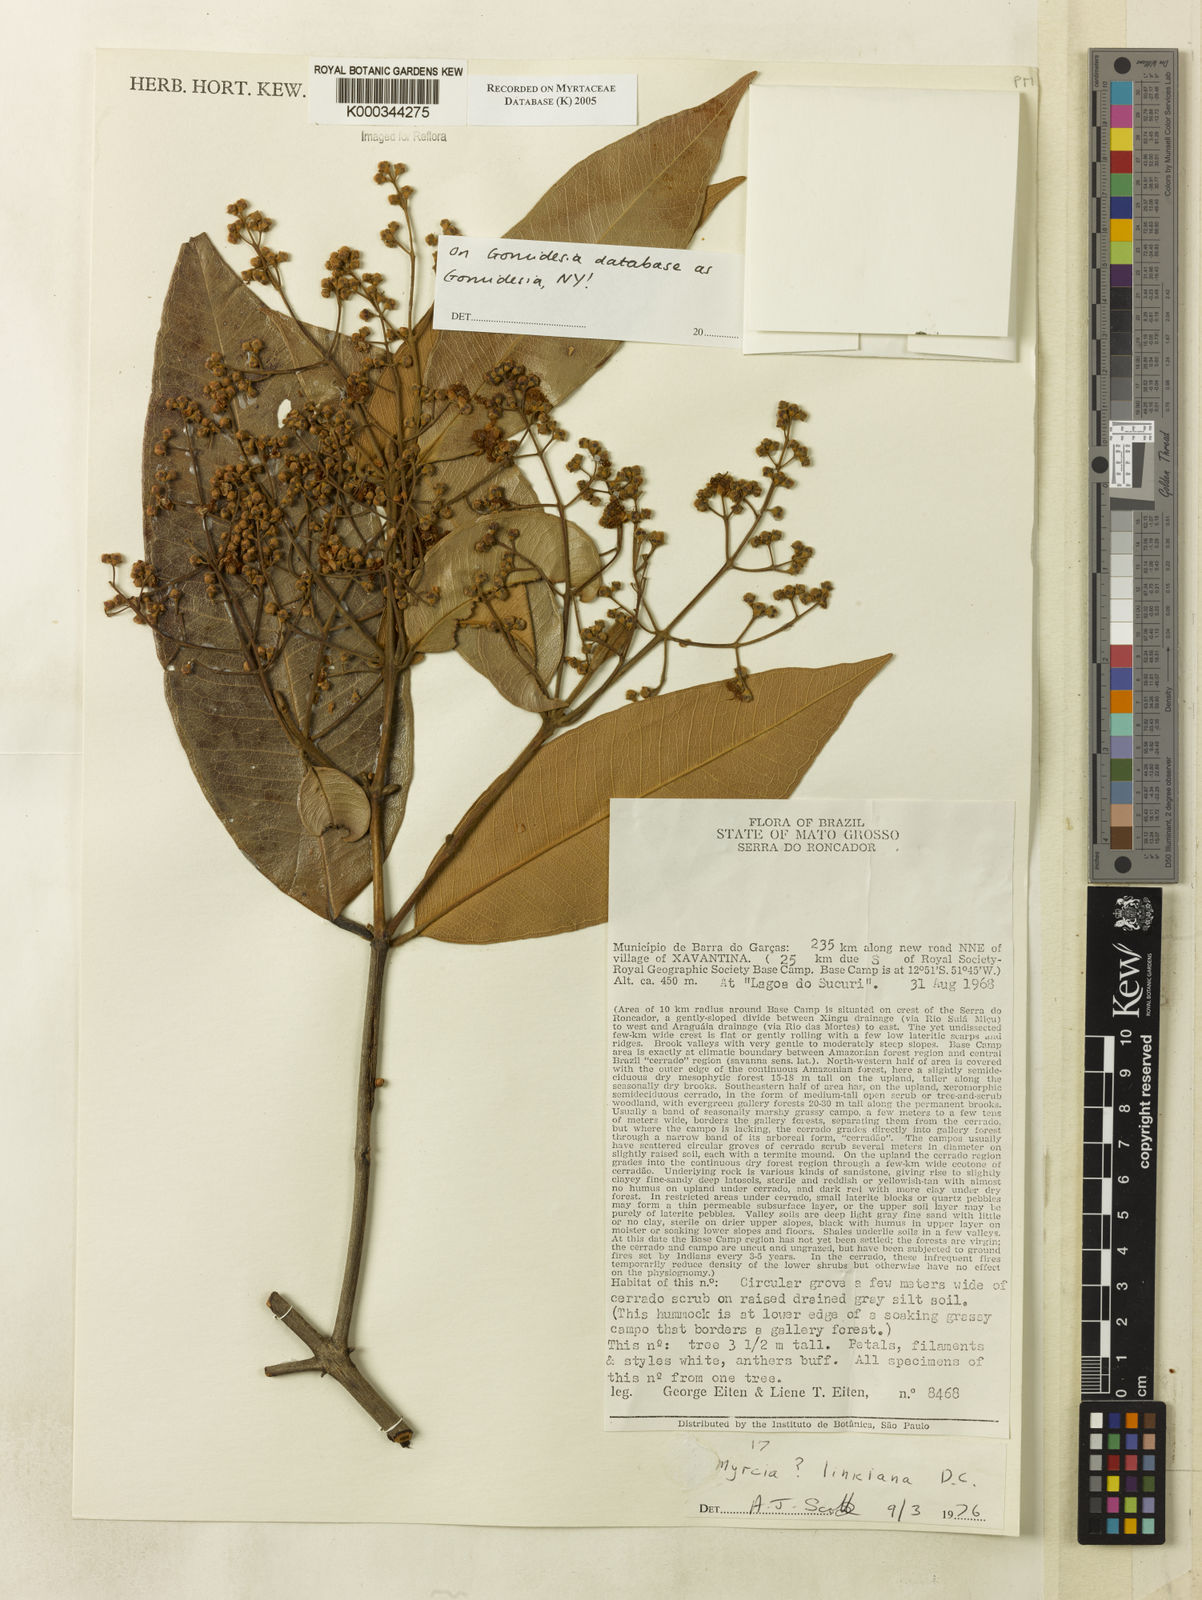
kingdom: Plantae
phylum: Tracheophyta
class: Magnoliopsida
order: Myrtales
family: Myrtaceae
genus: Myrcia
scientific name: Myrcia splendens
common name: Surinam cherry
